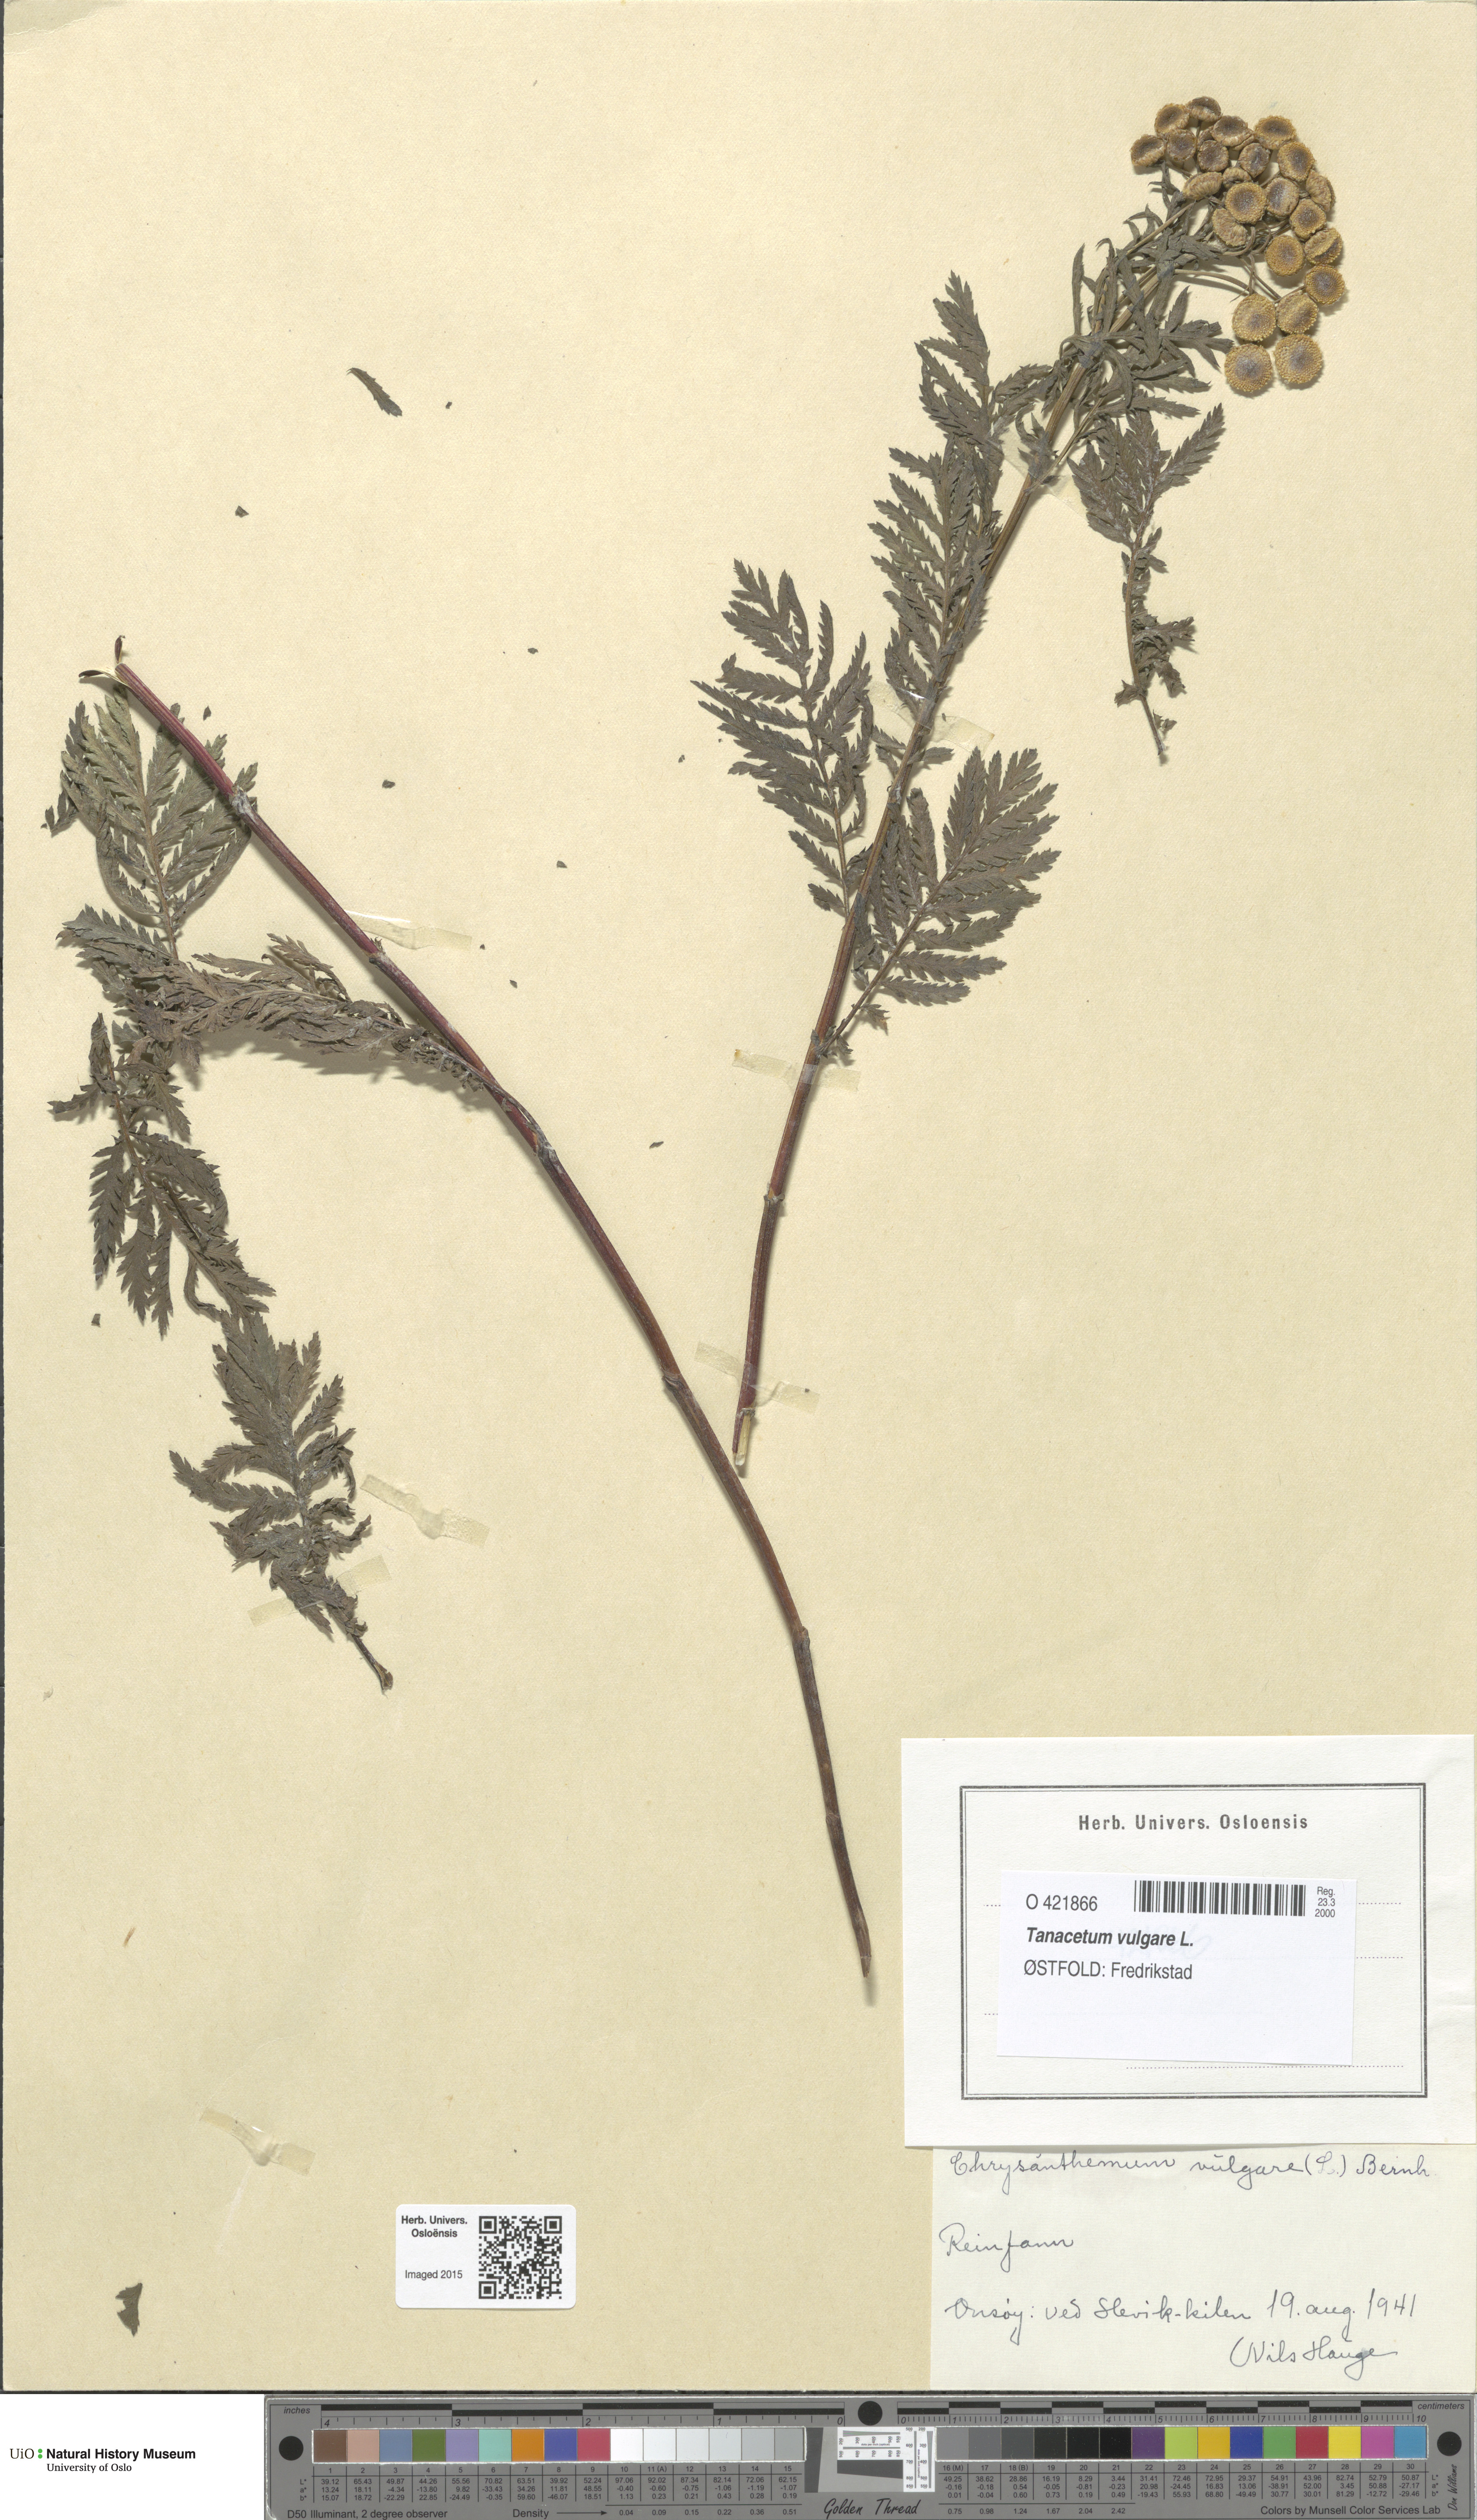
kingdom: Plantae
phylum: Tracheophyta
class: Magnoliopsida
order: Asterales
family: Asteraceae
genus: Tanacetum
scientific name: Tanacetum vulgare
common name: Common tansy
